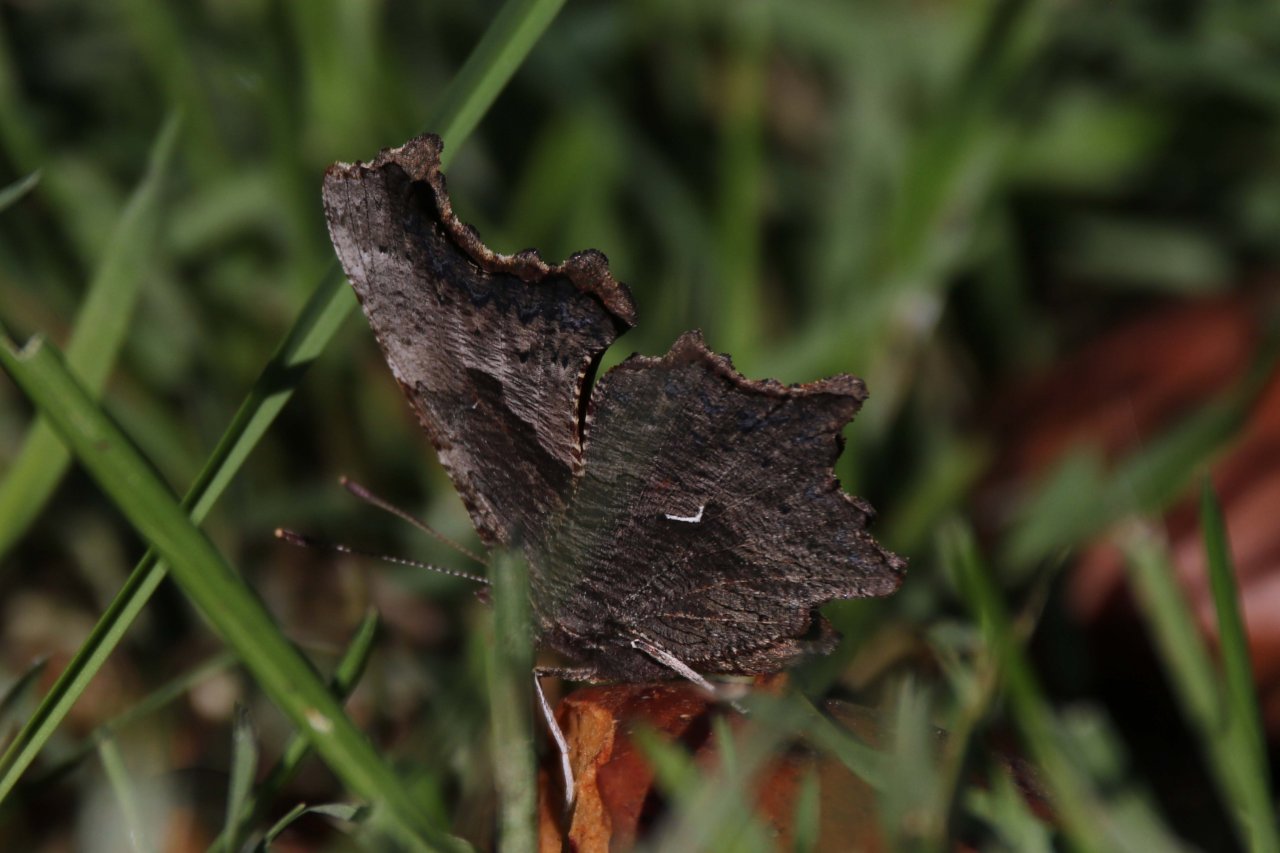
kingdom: Animalia
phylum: Arthropoda
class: Insecta
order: Lepidoptera
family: Nymphalidae
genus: Polygonia
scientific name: Polygonia progne
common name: Gray Comma
